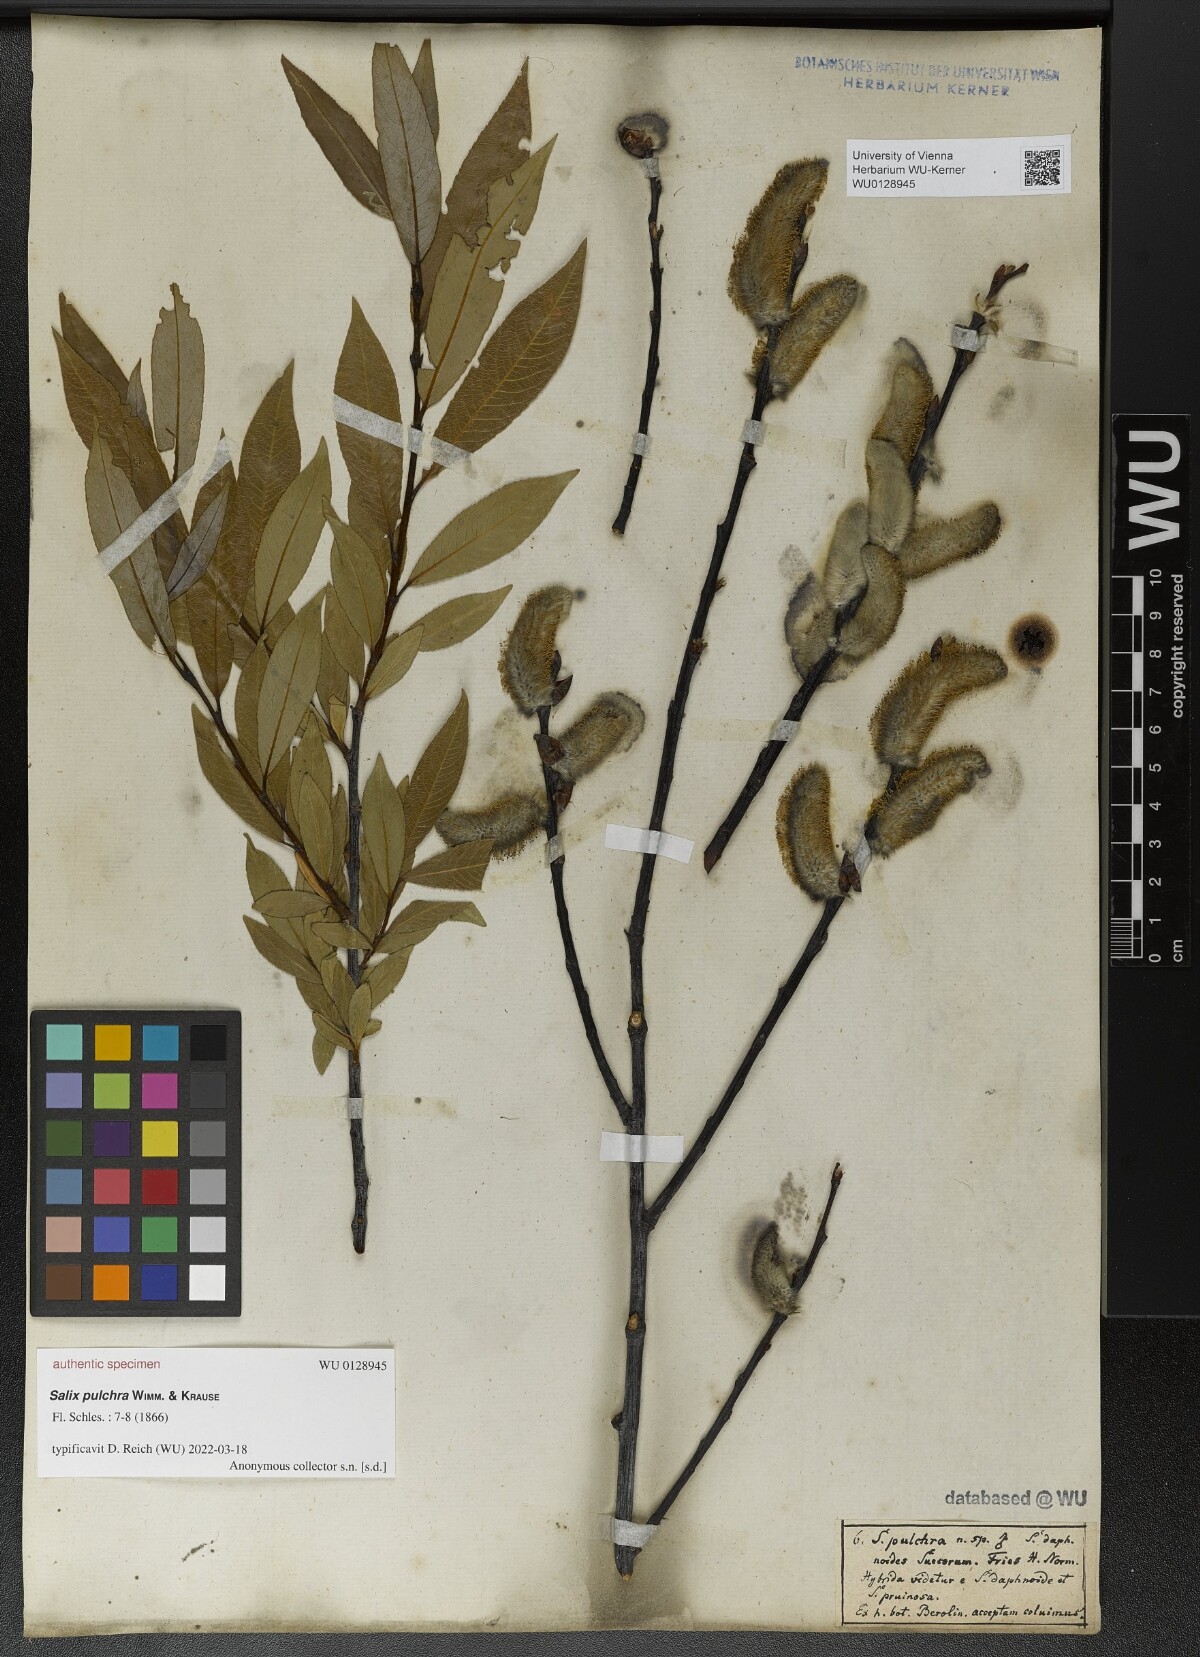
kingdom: Plantae
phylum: Tracheophyta
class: Magnoliopsida
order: Malpighiales
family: Salicaceae
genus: Salix
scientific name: Salix daphnoides
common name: European violet-willow
